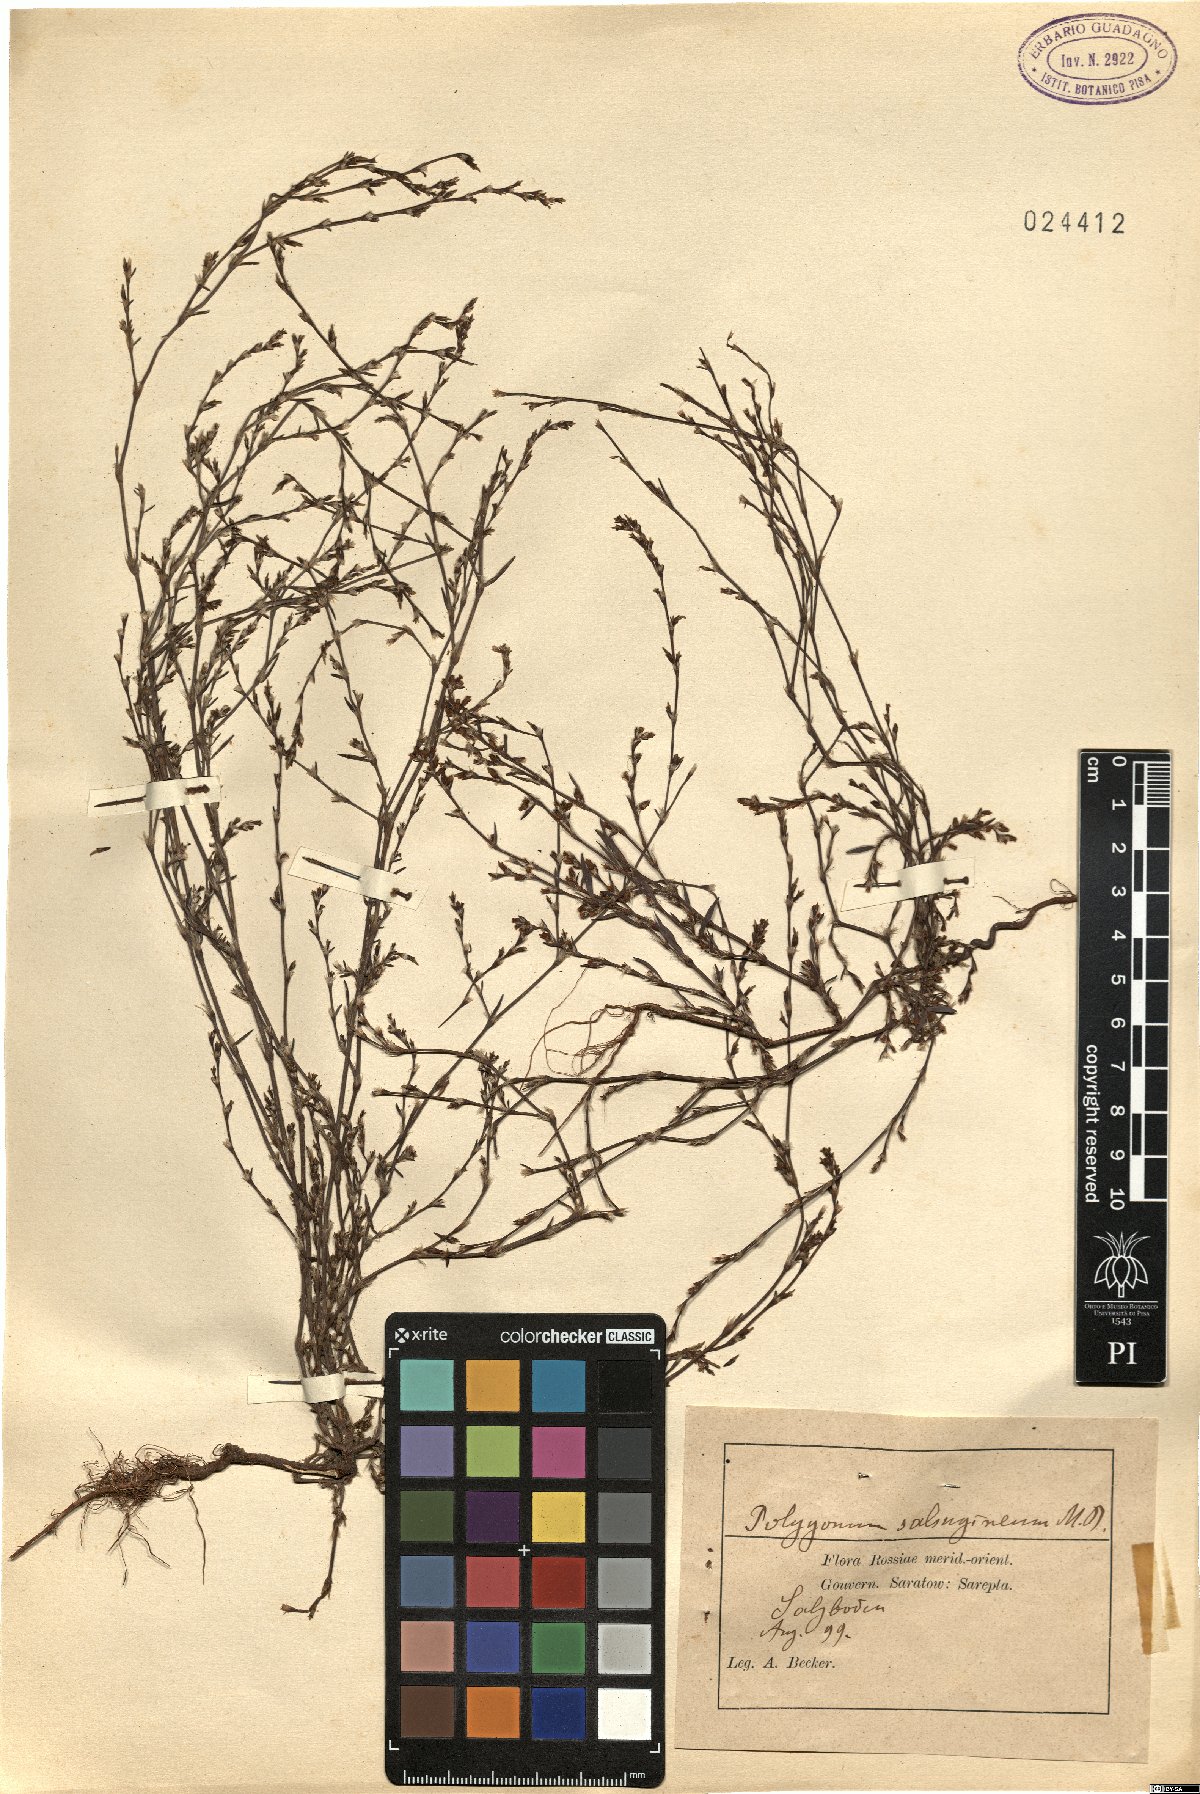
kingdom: Plantae
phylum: Tracheophyta
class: Magnoliopsida
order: Caryophyllales
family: Polygonaceae
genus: Polygonum
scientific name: Polygonum salsugineum
